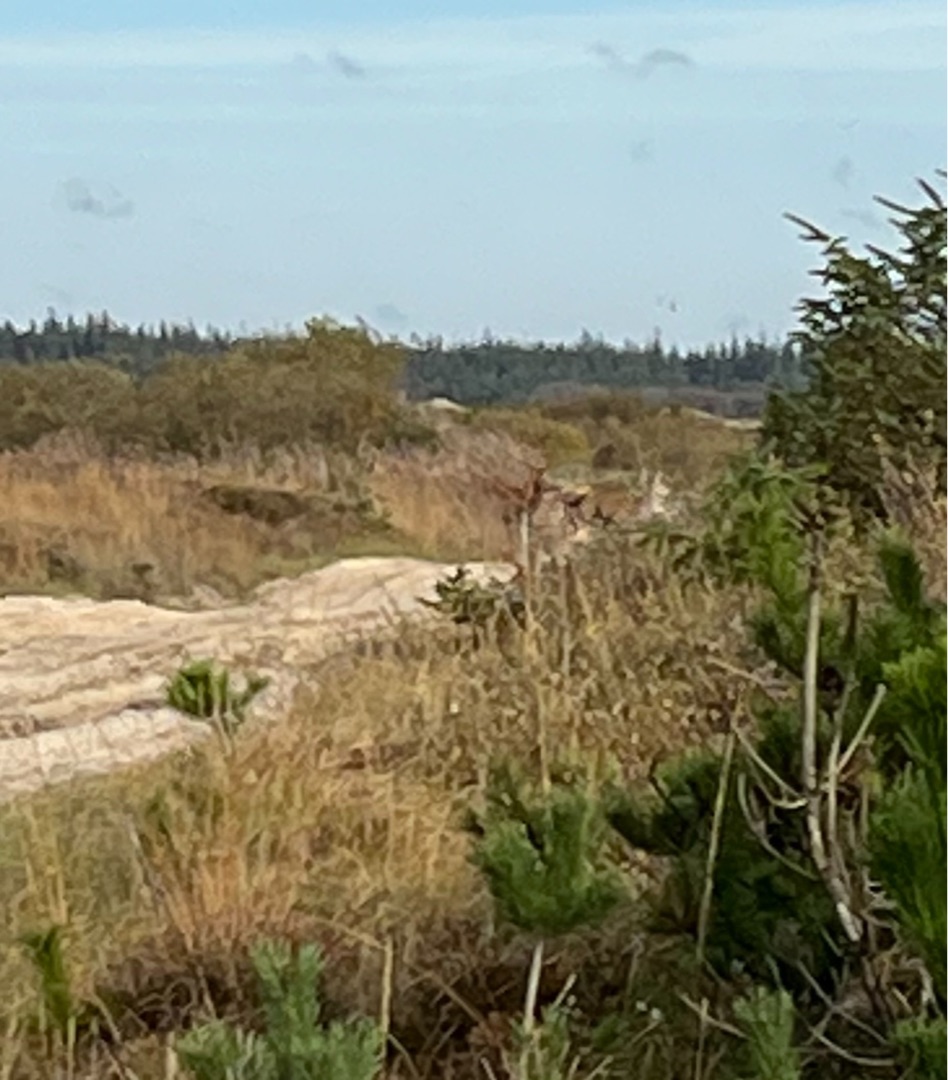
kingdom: Animalia
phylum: Chordata
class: Mammalia
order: Artiodactyla
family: Cervidae
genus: Cervus
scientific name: Cervus elaphus
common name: Krondyr
